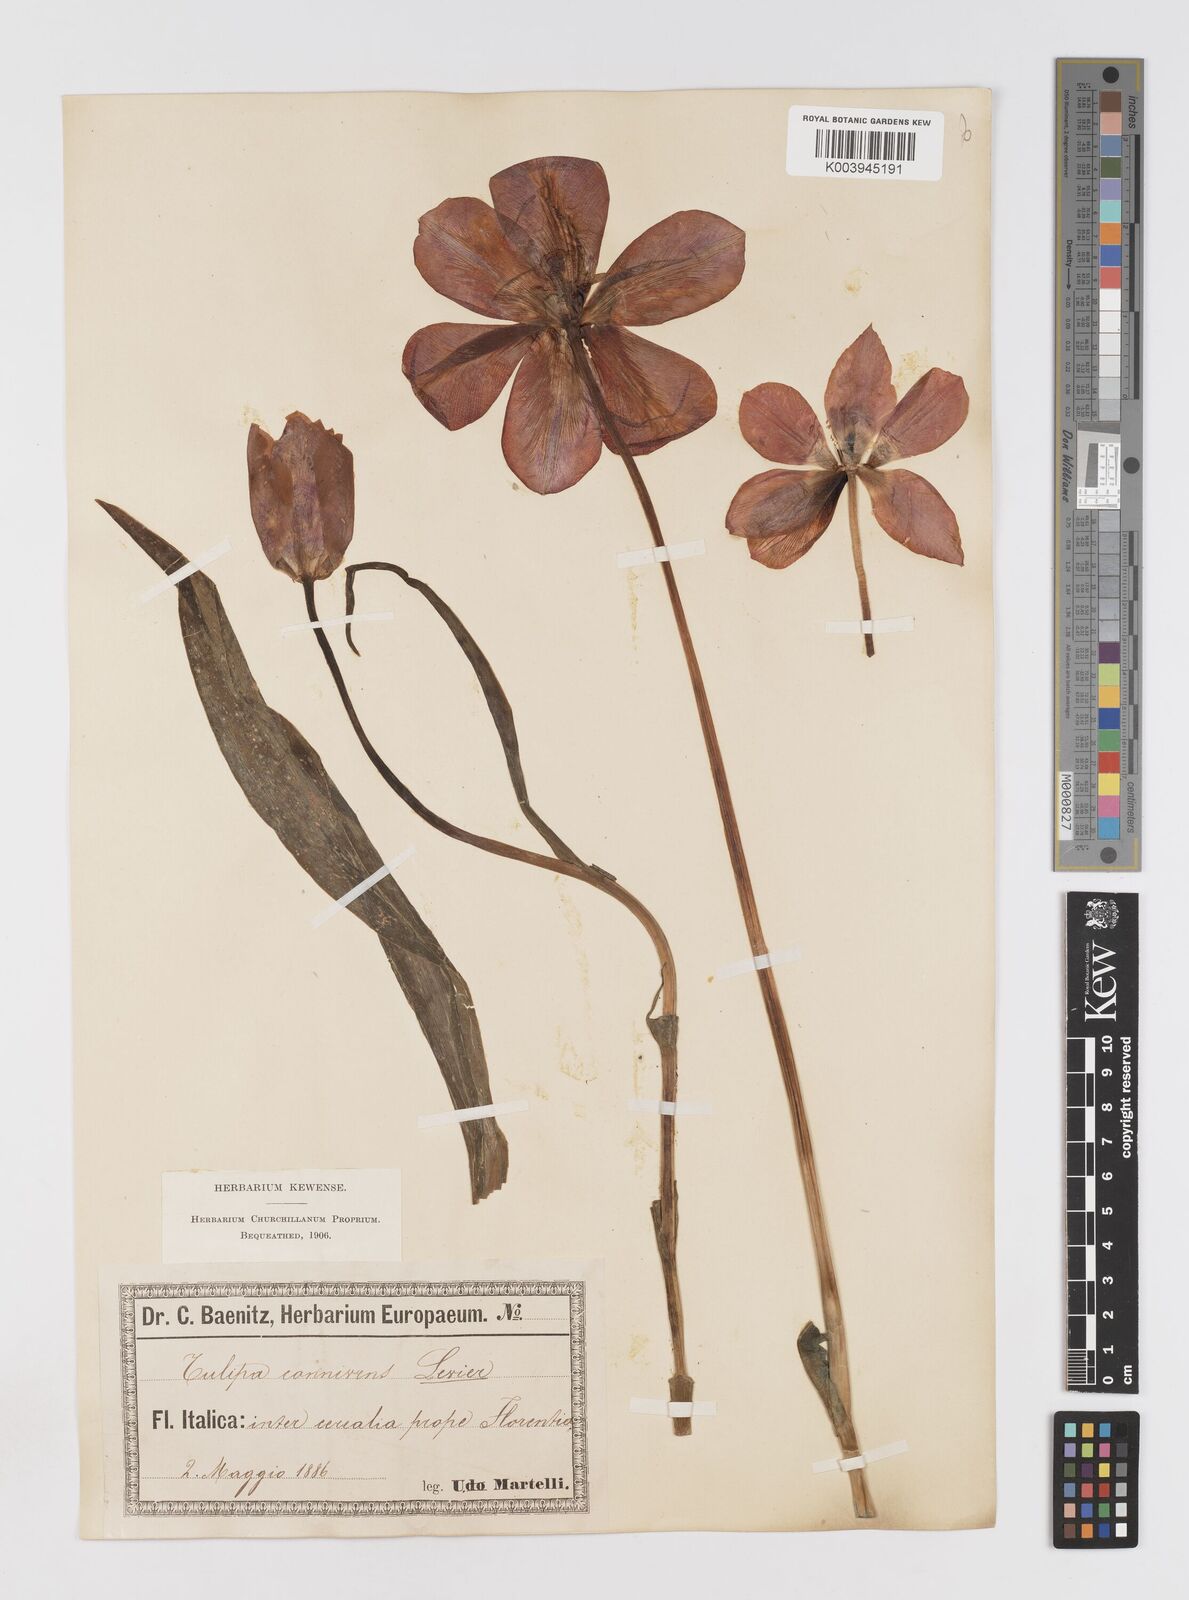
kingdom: Plantae
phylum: Tracheophyta
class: Liliopsida
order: Liliales
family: Liliaceae
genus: Tulipa
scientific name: Tulipa gesneriana
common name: Garden tulip
